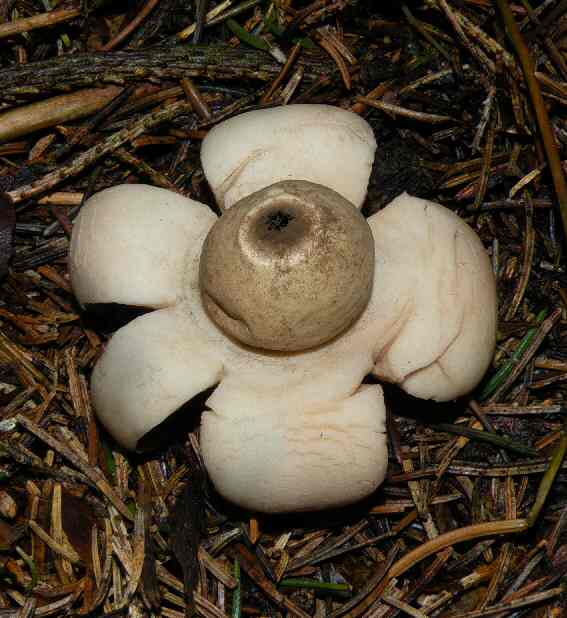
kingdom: Fungi
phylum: Basidiomycota
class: Agaricomycetes
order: Geastrales
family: Geastraceae
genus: Geastrum
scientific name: Geastrum fimbriatum
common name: frynset stjernebold
